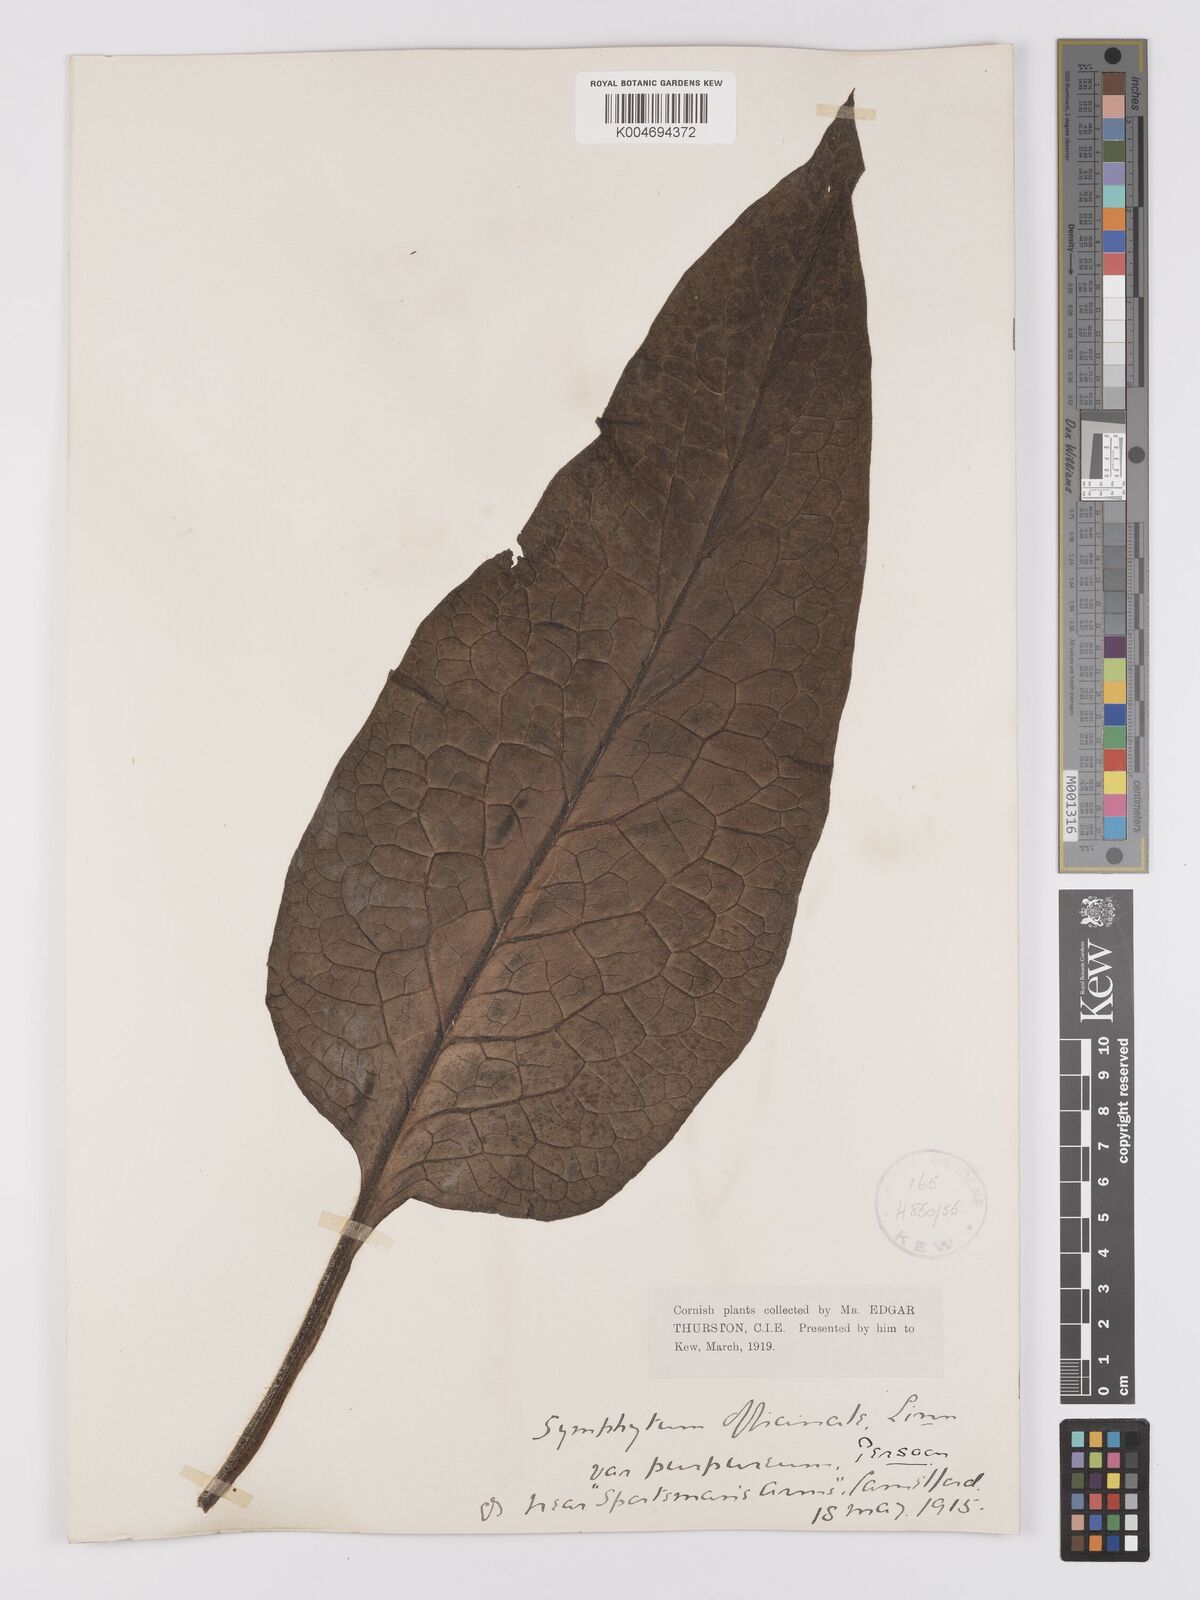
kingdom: Plantae
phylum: Tracheophyta
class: Magnoliopsida
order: Boraginales
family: Boraginaceae
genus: Symphytum
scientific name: Symphytum officinale
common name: Common comfrey
